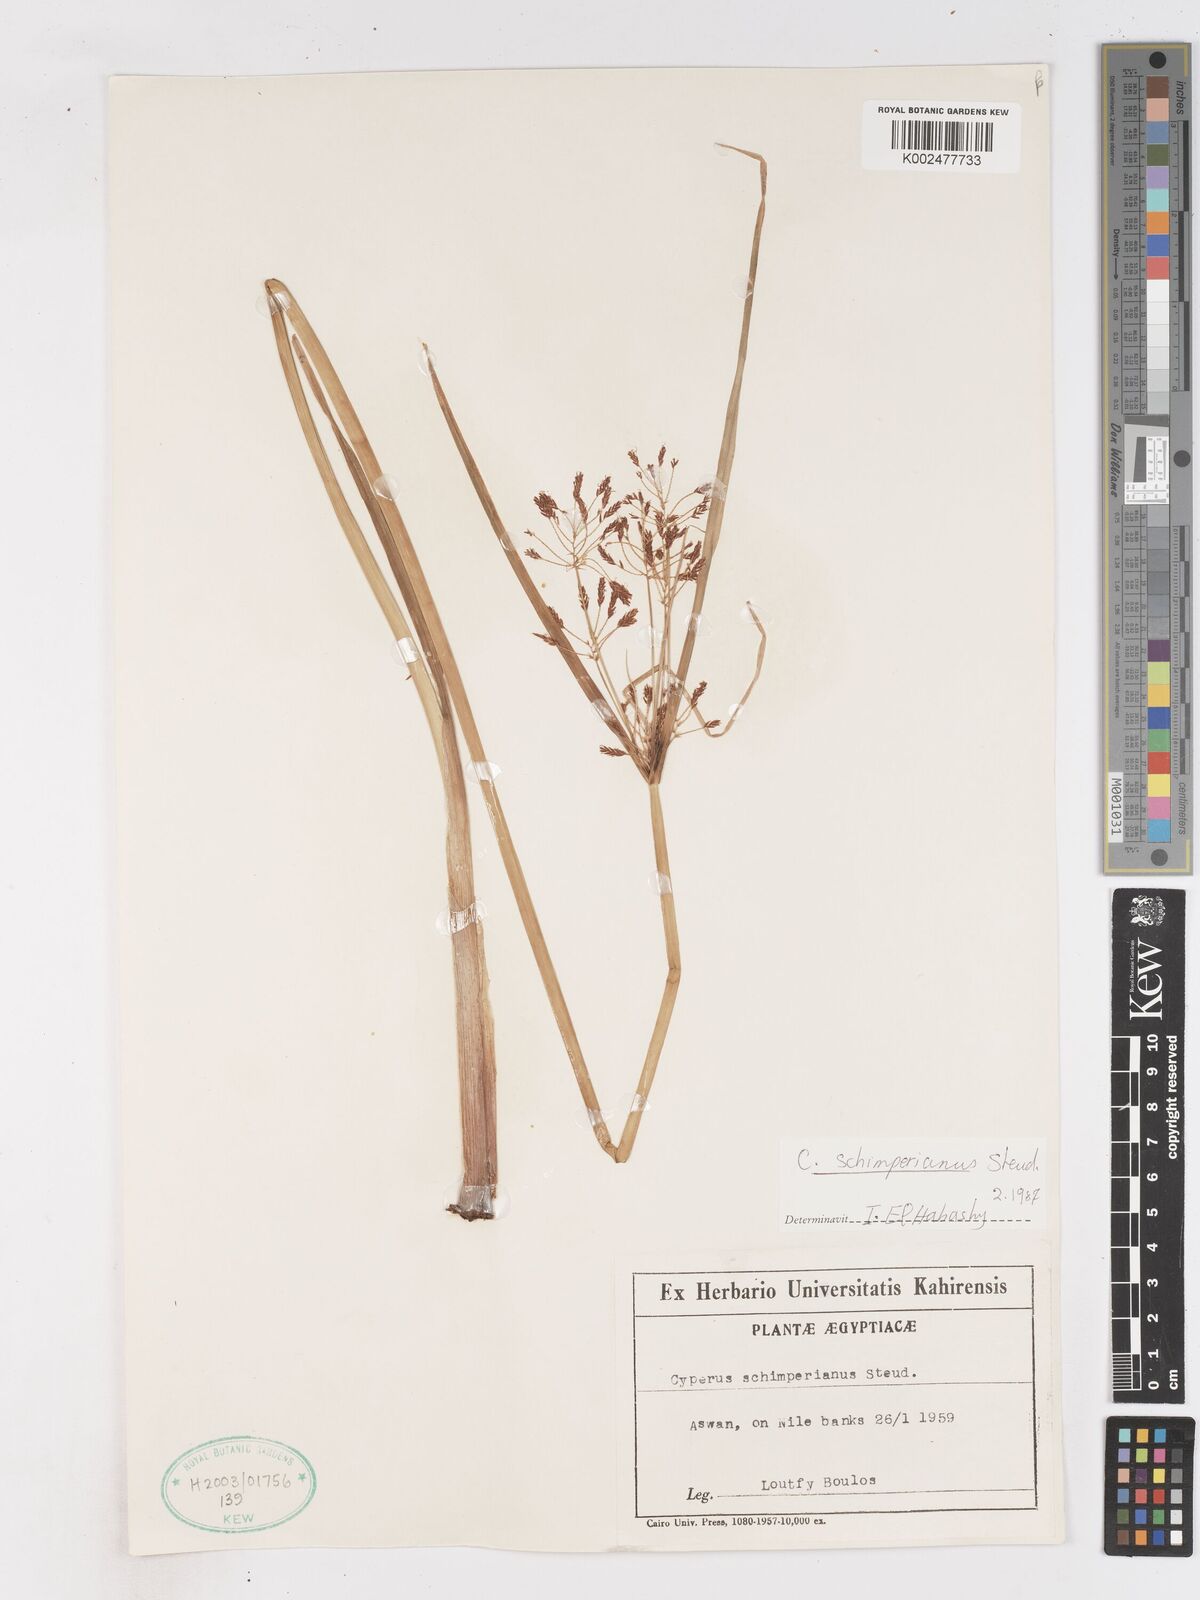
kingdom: Plantae
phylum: Tracheophyta
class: Liliopsida
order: Poales
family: Cyperaceae
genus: Cyperus
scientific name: Cyperus schimperianus
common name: Schimper flatsedge
